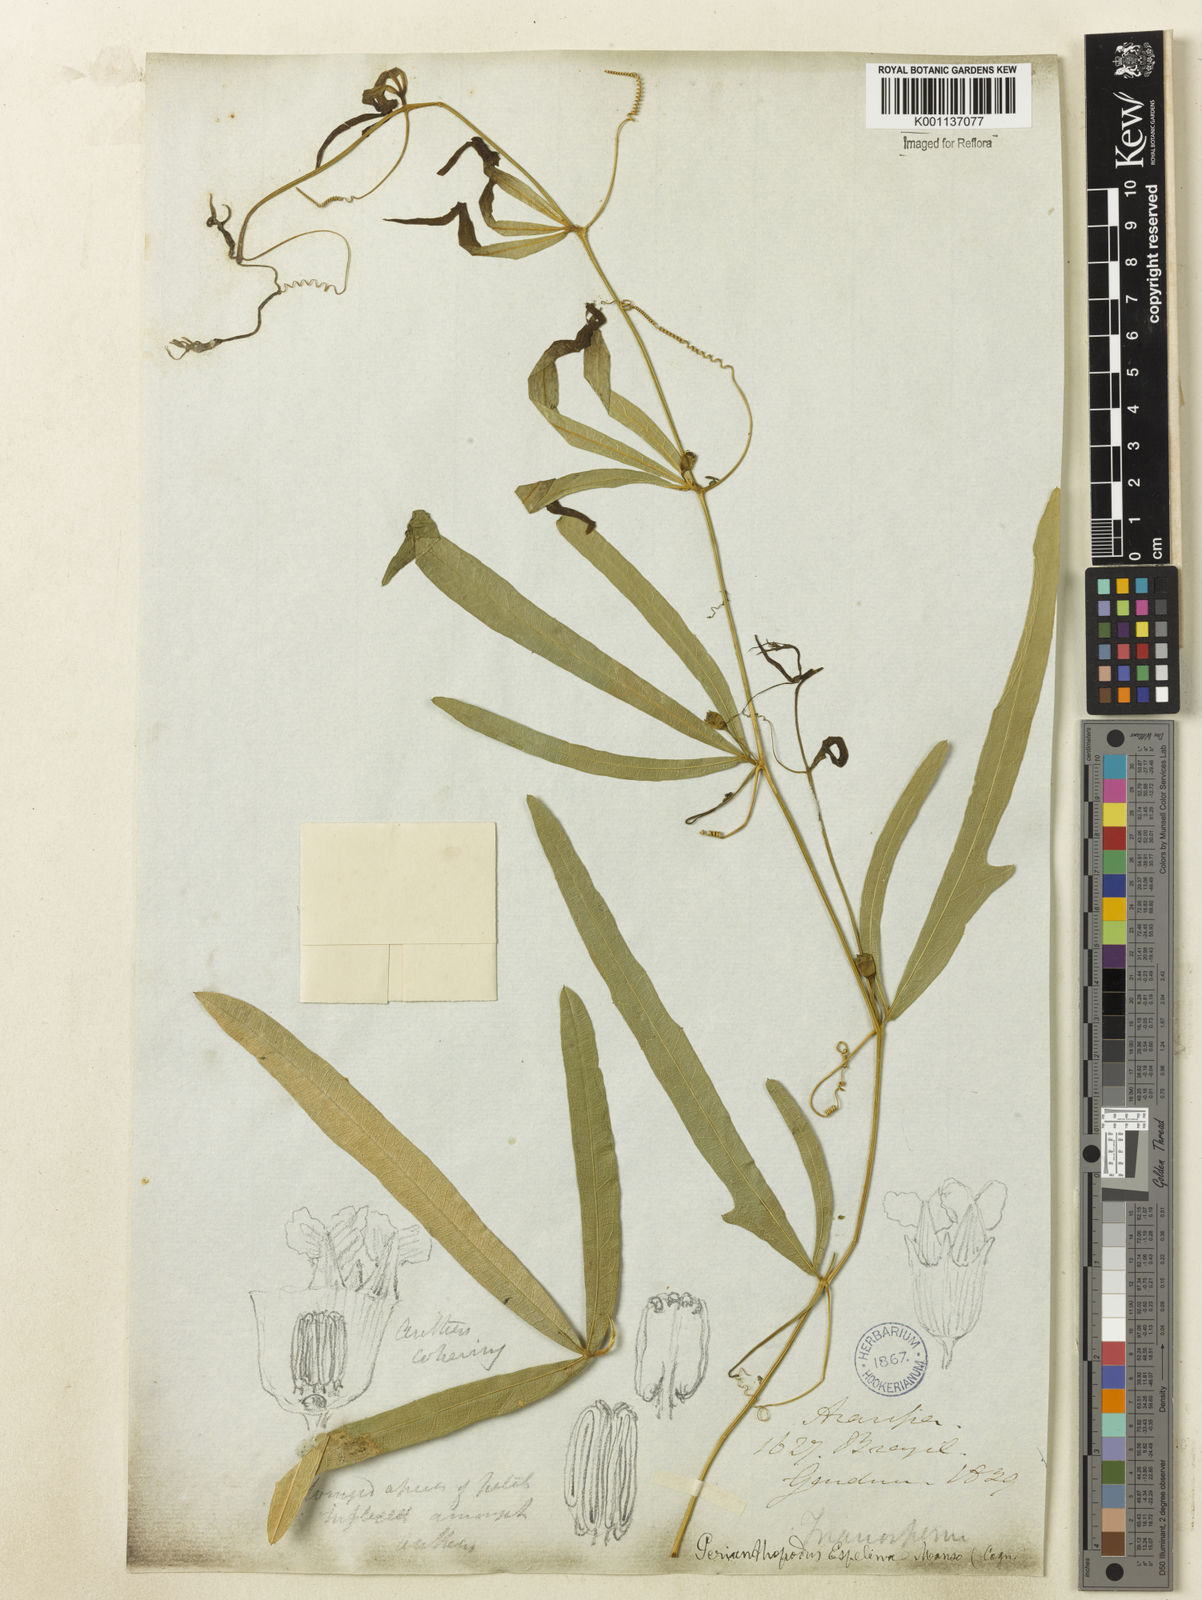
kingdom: Plantae
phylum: Tracheophyta
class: Magnoliopsida
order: Cucurbitales
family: Cucurbitaceae
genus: Cayaponia
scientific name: Cayaponia espelina
